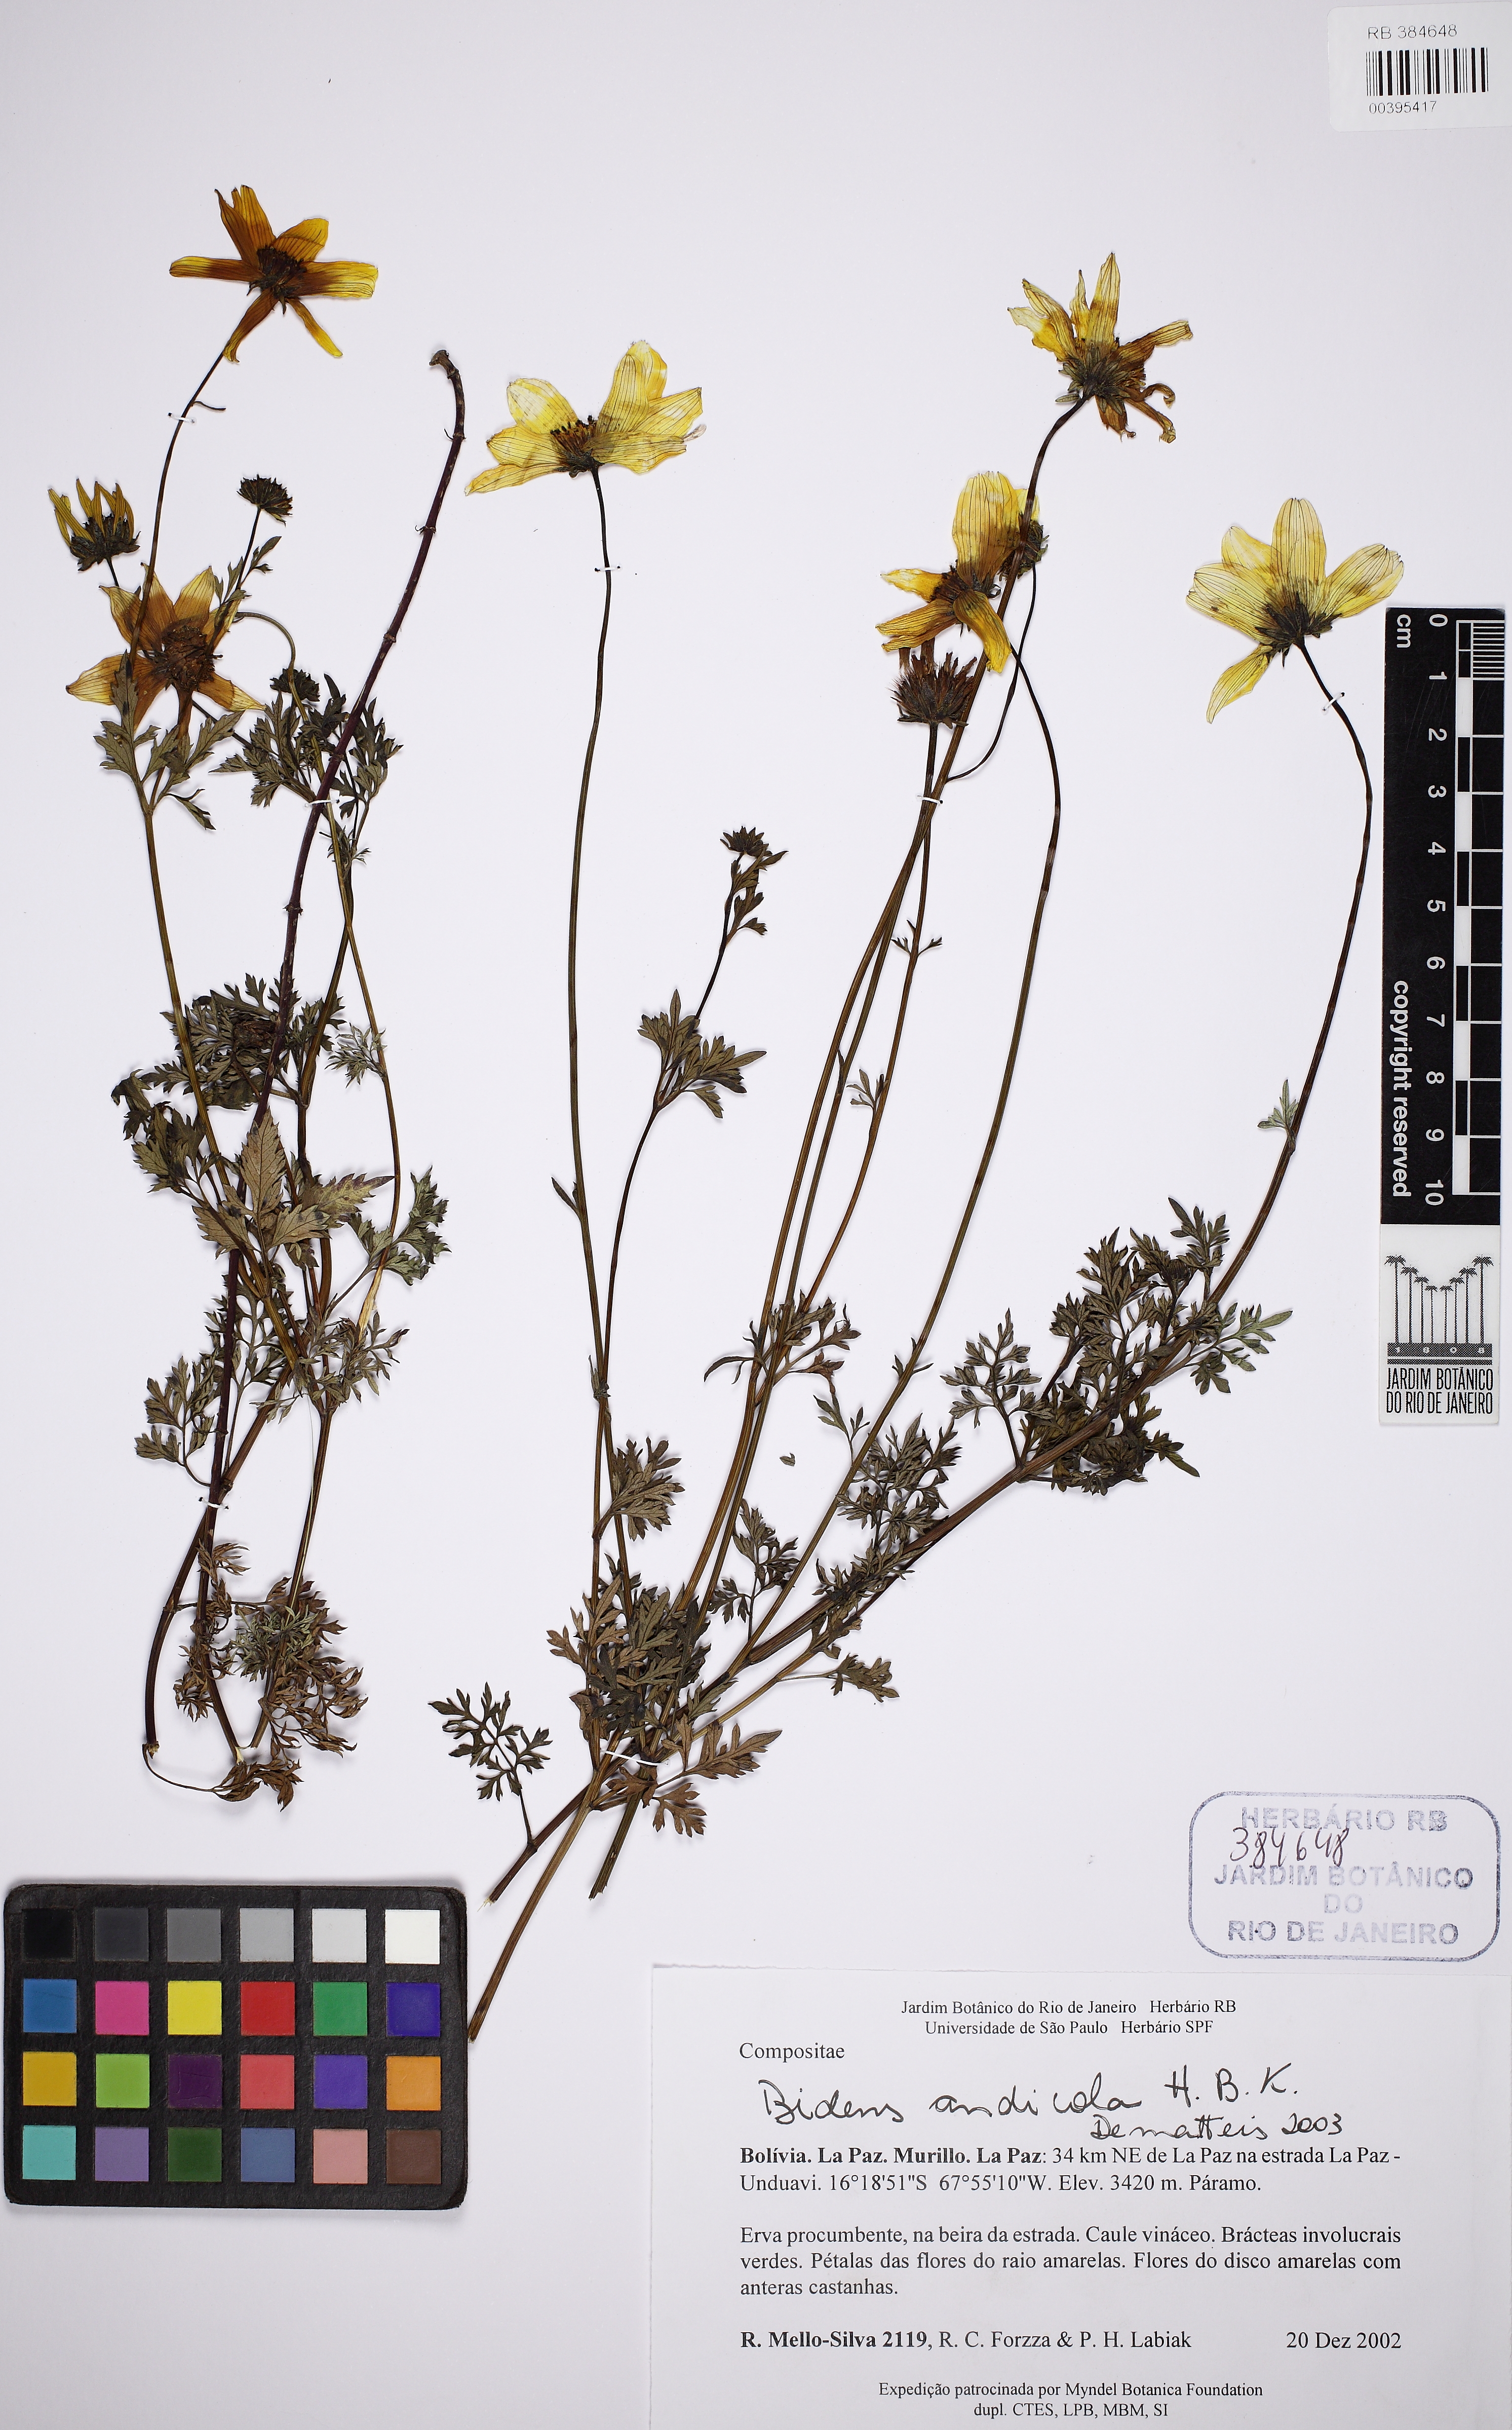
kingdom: Plantae
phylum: Tracheophyta
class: Magnoliopsida
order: Asterales
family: Asteraceae
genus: Bidens
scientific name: Bidens andicola
